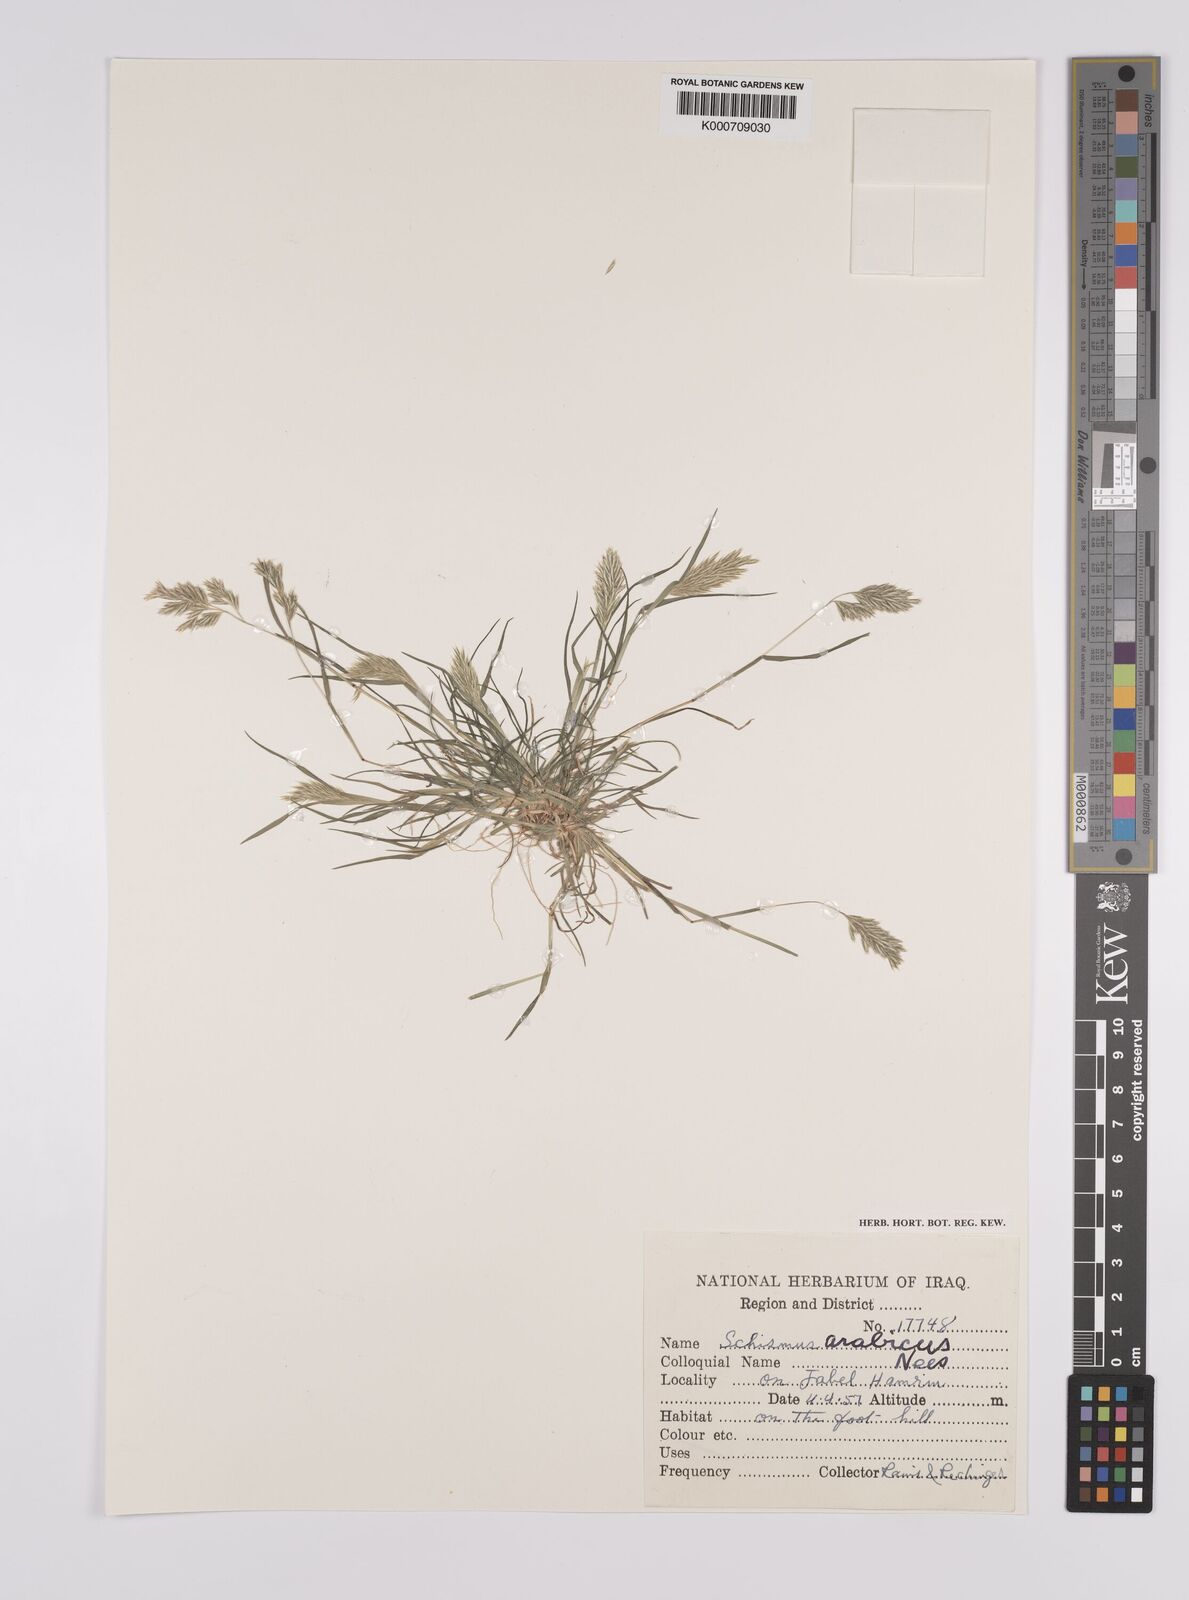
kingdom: Plantae
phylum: Tracheophyta
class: Liliopsida
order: Poales
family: Poaceae
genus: Schismus
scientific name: Schismus arabicus
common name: Arabian schismus
